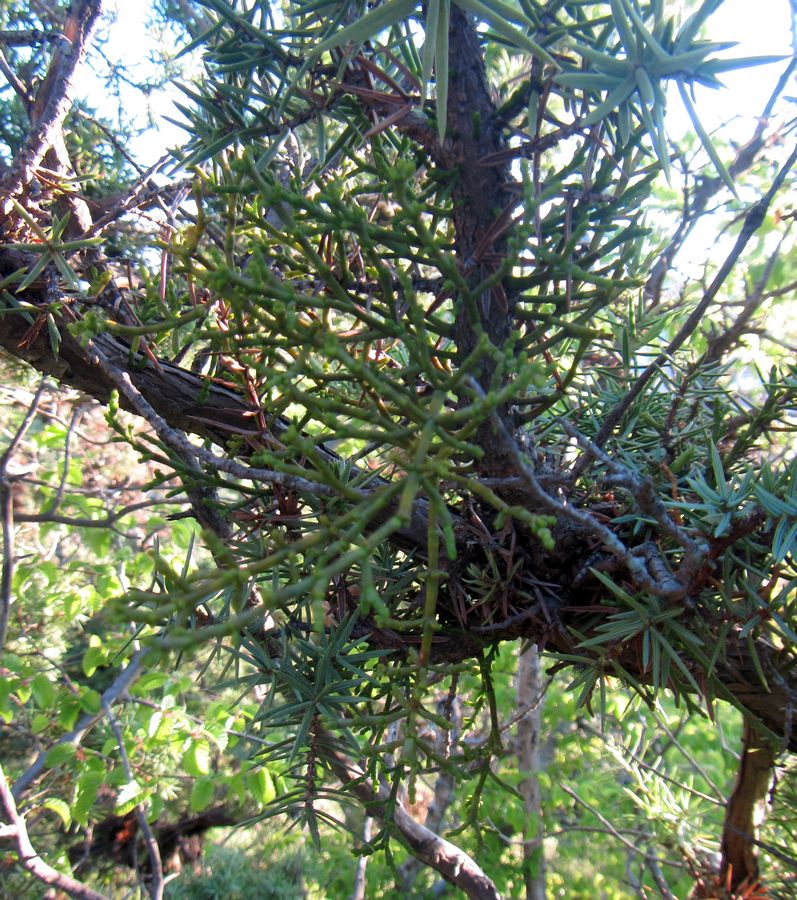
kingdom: Plantae
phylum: Tracheophyta
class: Magnoliopsida
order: Santalales
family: Viscaceae
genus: Arceuthobium
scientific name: Arceuthobium oxycedri
